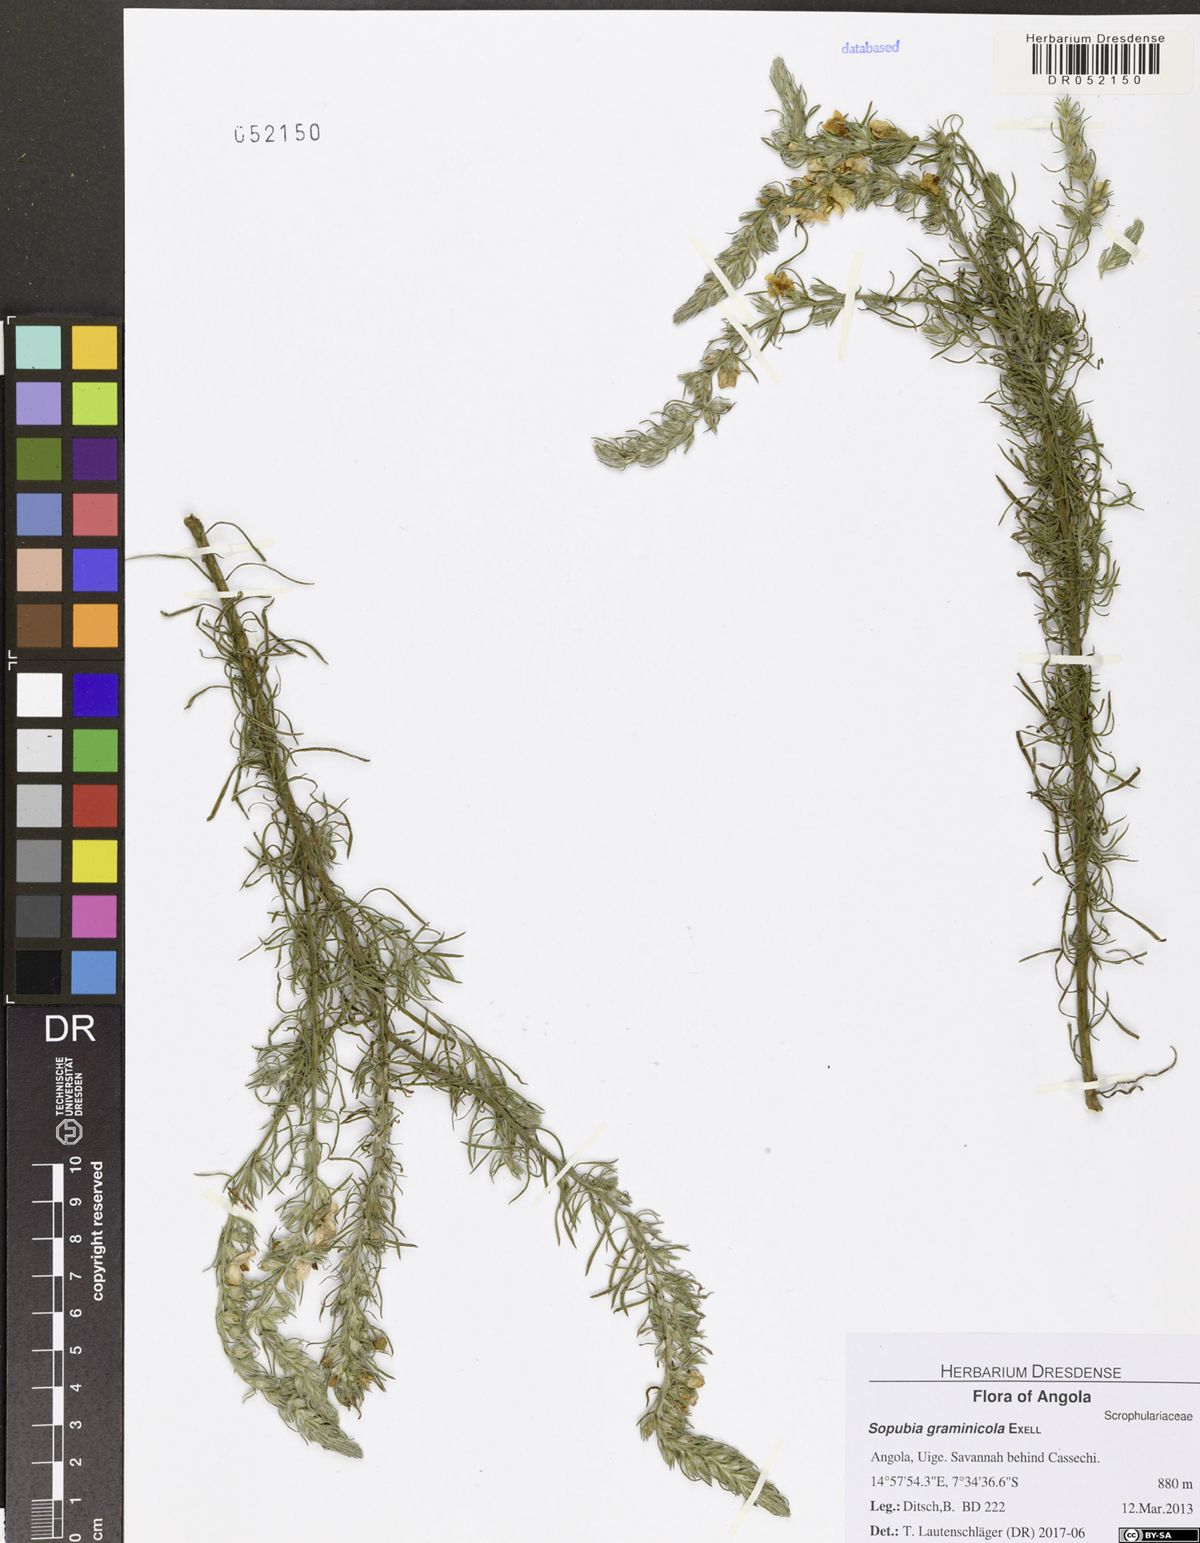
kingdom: Plantae
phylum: Tracheophyta
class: Magnoliopsida
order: Lamiales
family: Orobanchaceae
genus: Sopubia
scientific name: Sopubia graminicola
